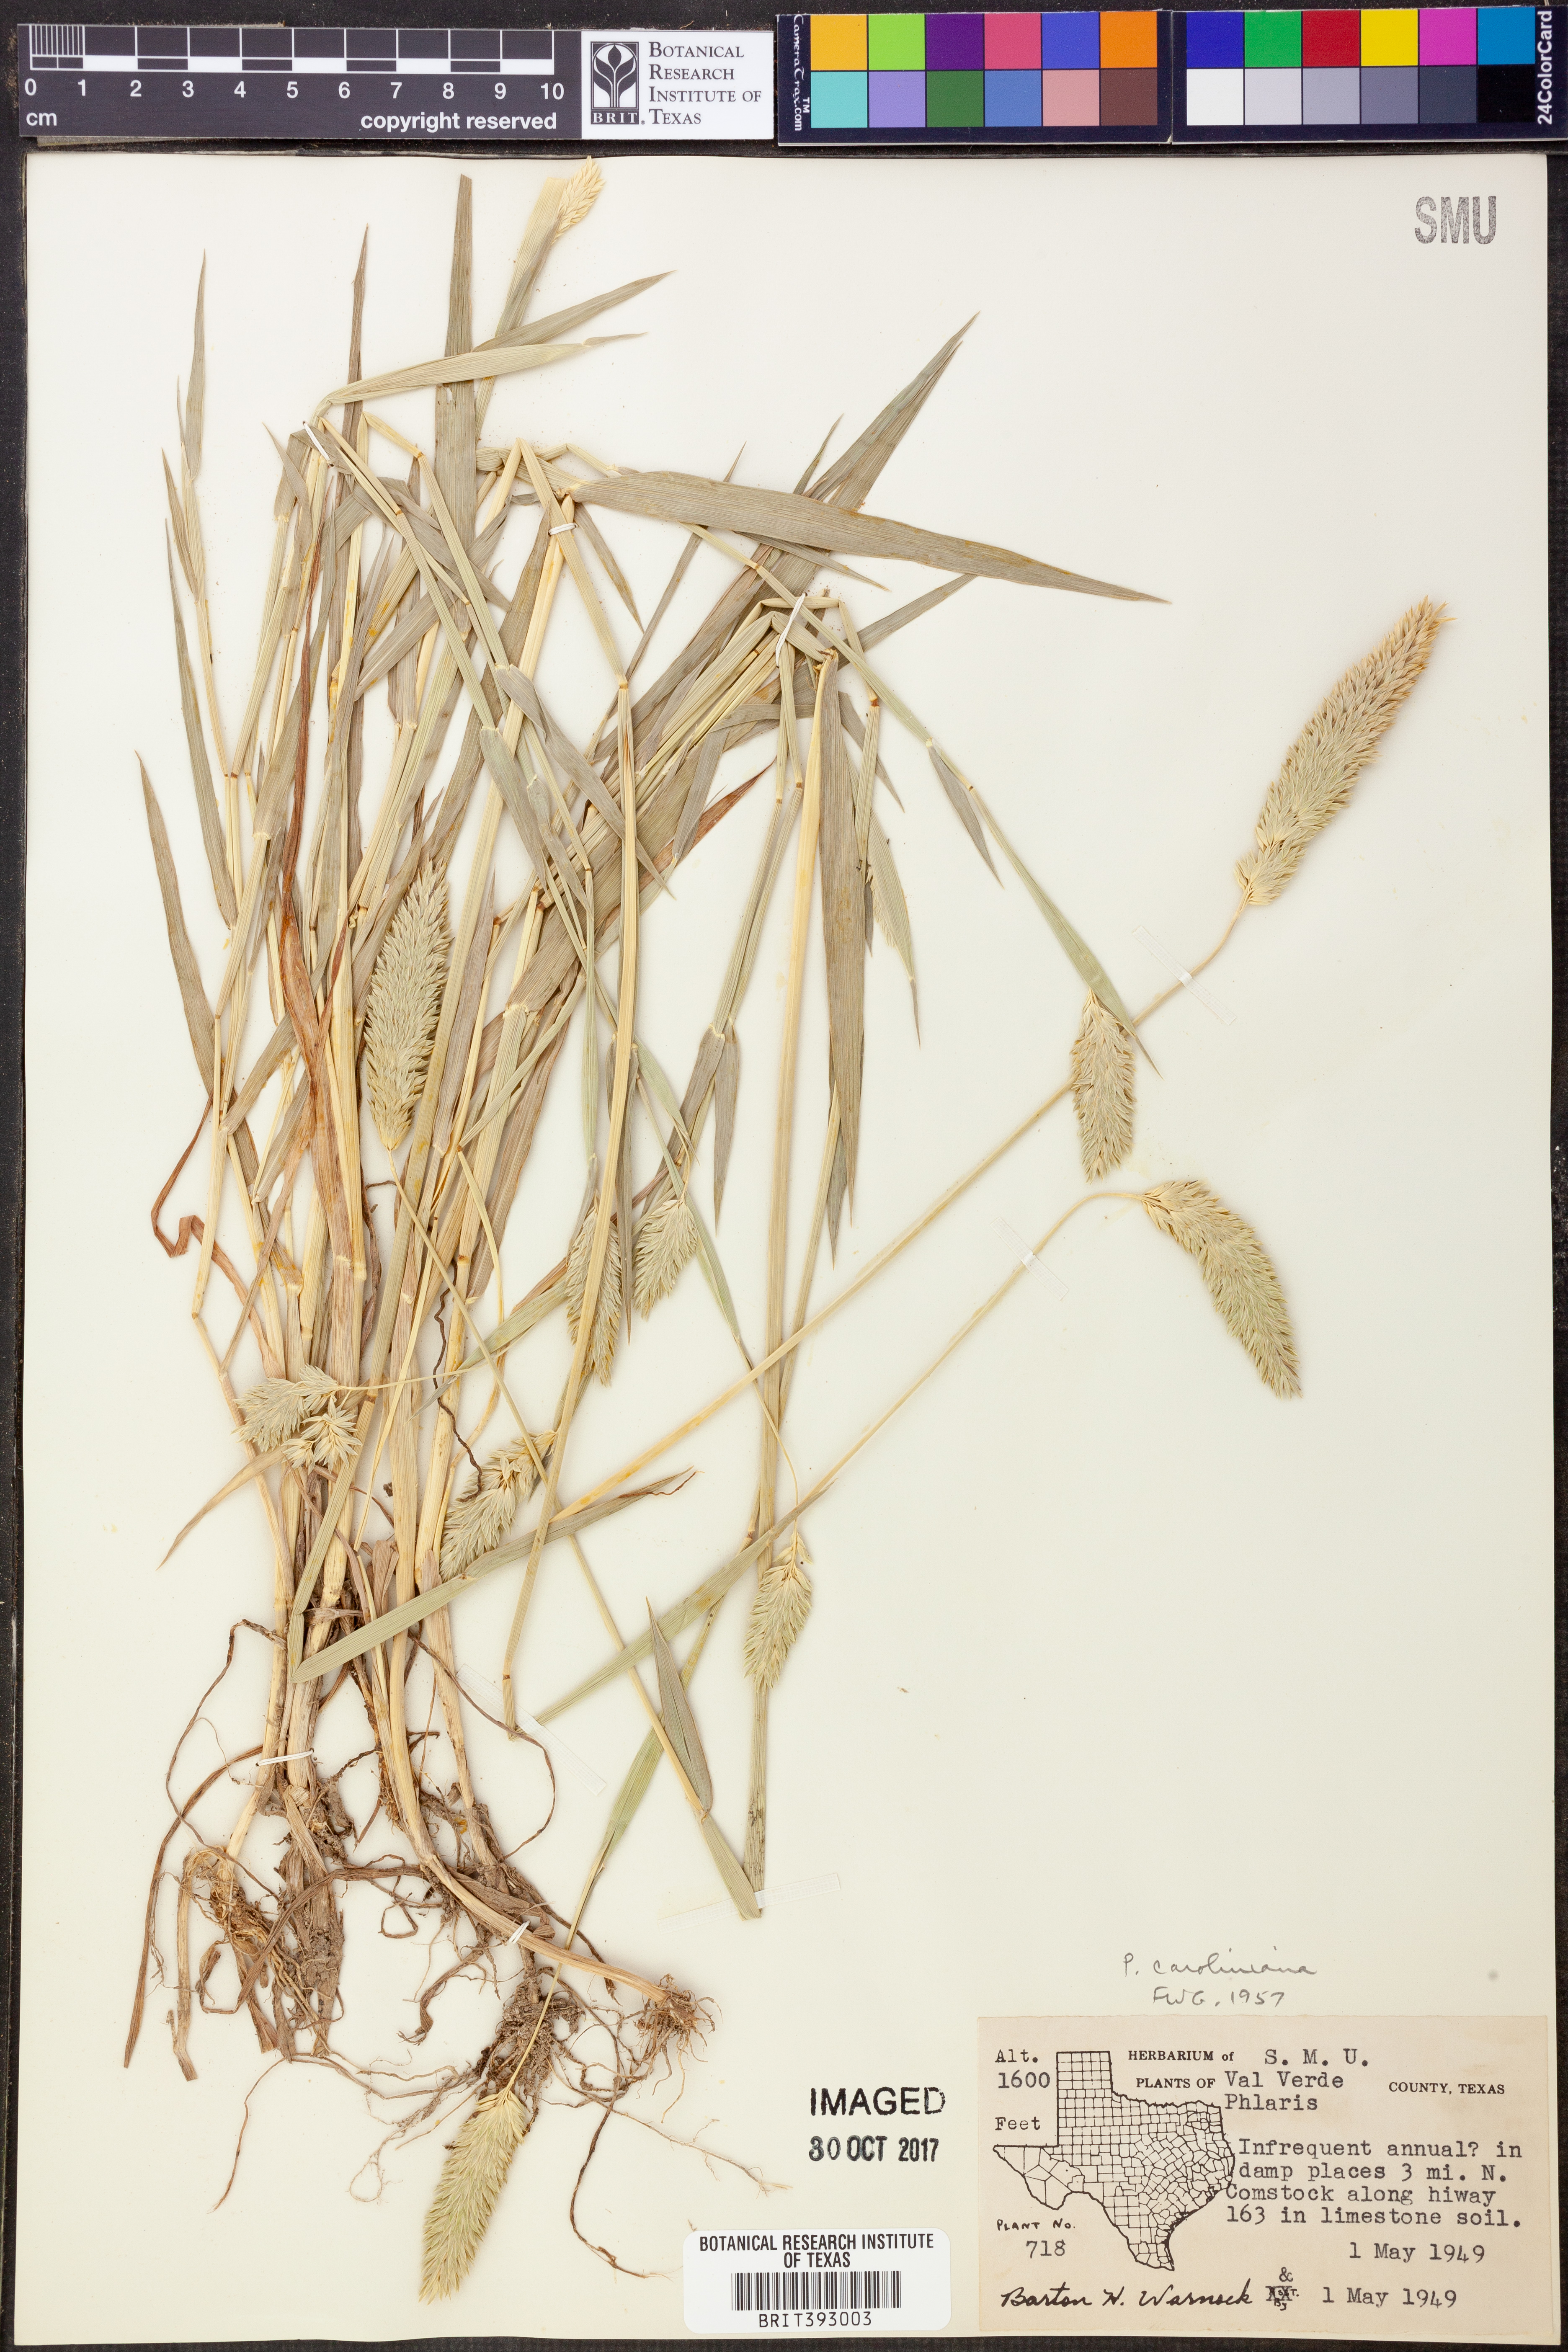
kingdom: Plantae
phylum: Tracheophyta
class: Liliopsida
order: Poales
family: Poaceae
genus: Phalaris
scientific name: Phalaris caroliniana
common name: May grass
